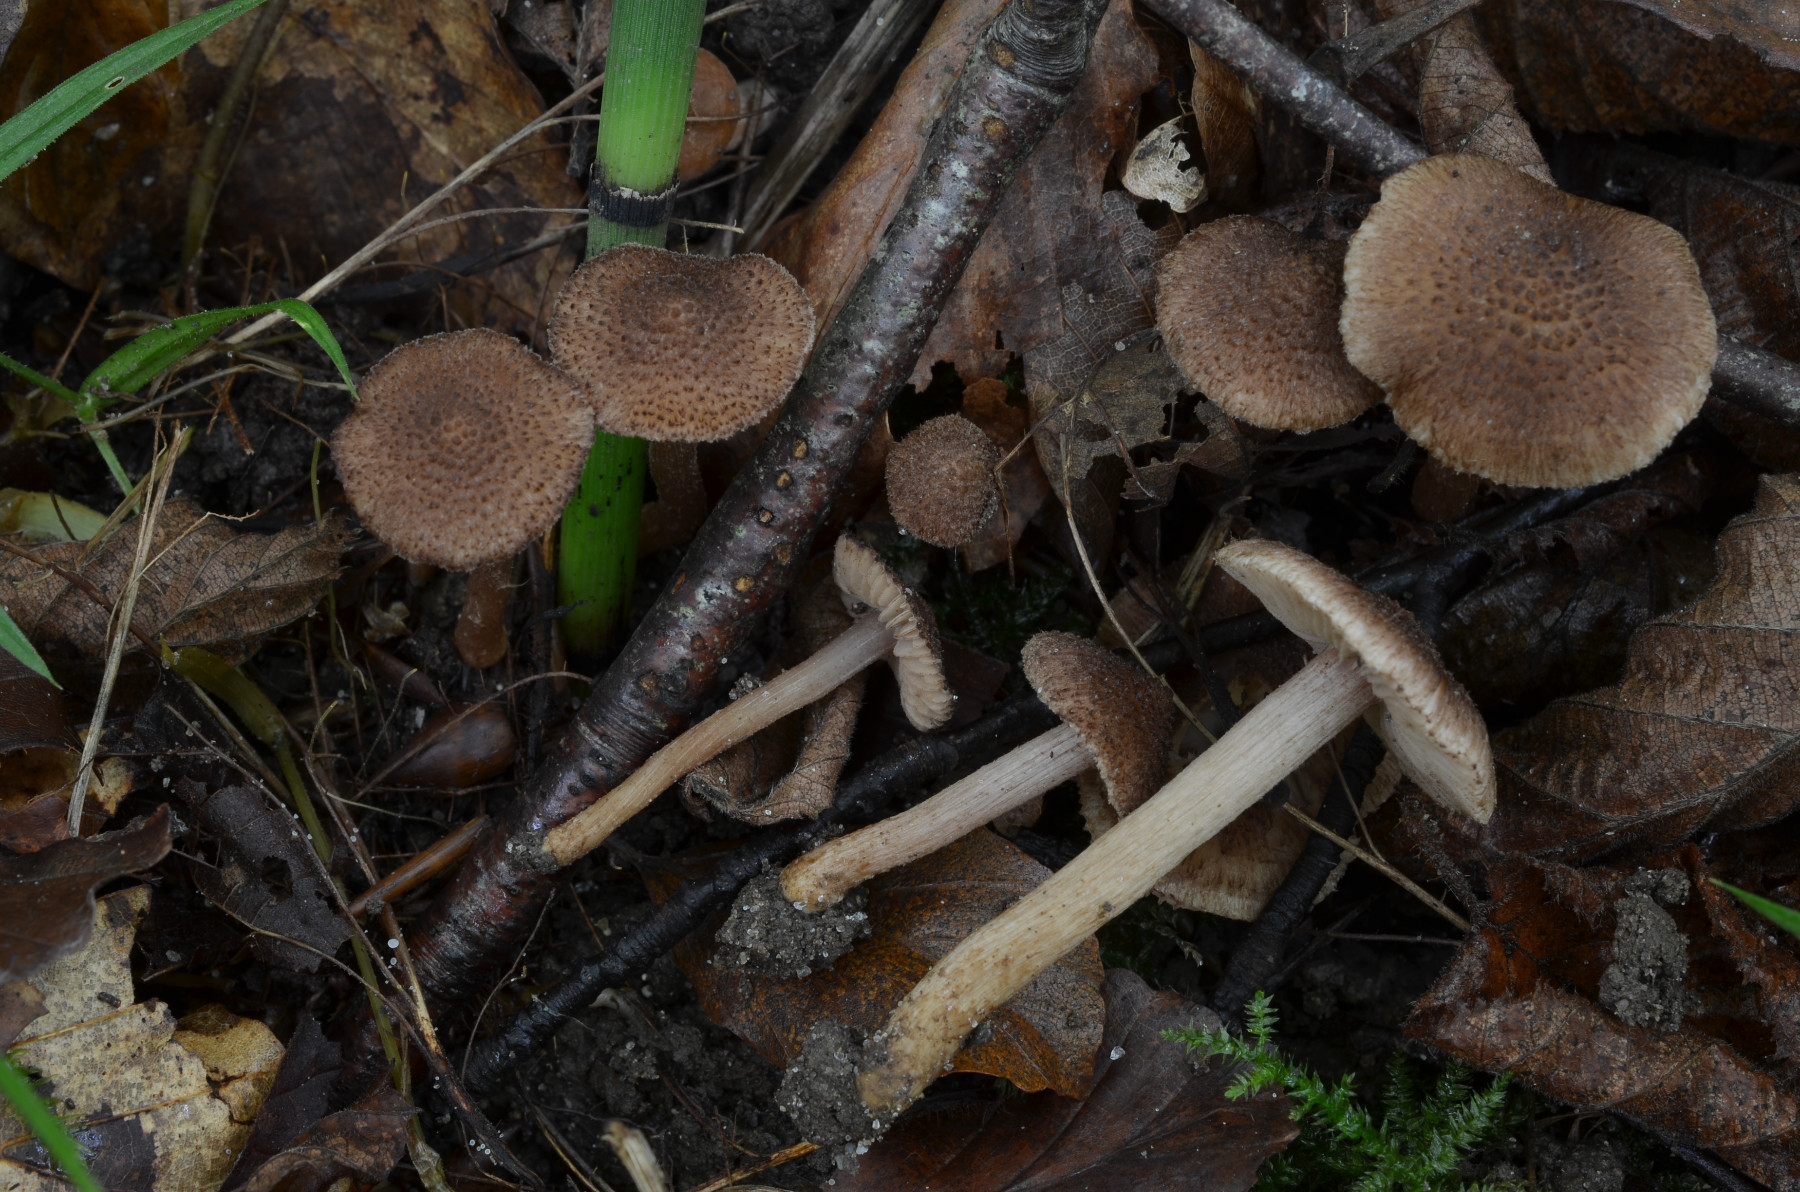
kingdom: Fungi
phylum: Basidiomycota
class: Agaricomycetes
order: Agaricales
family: Inocybaceae
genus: Inocybe
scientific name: Inocybe cincinnata
